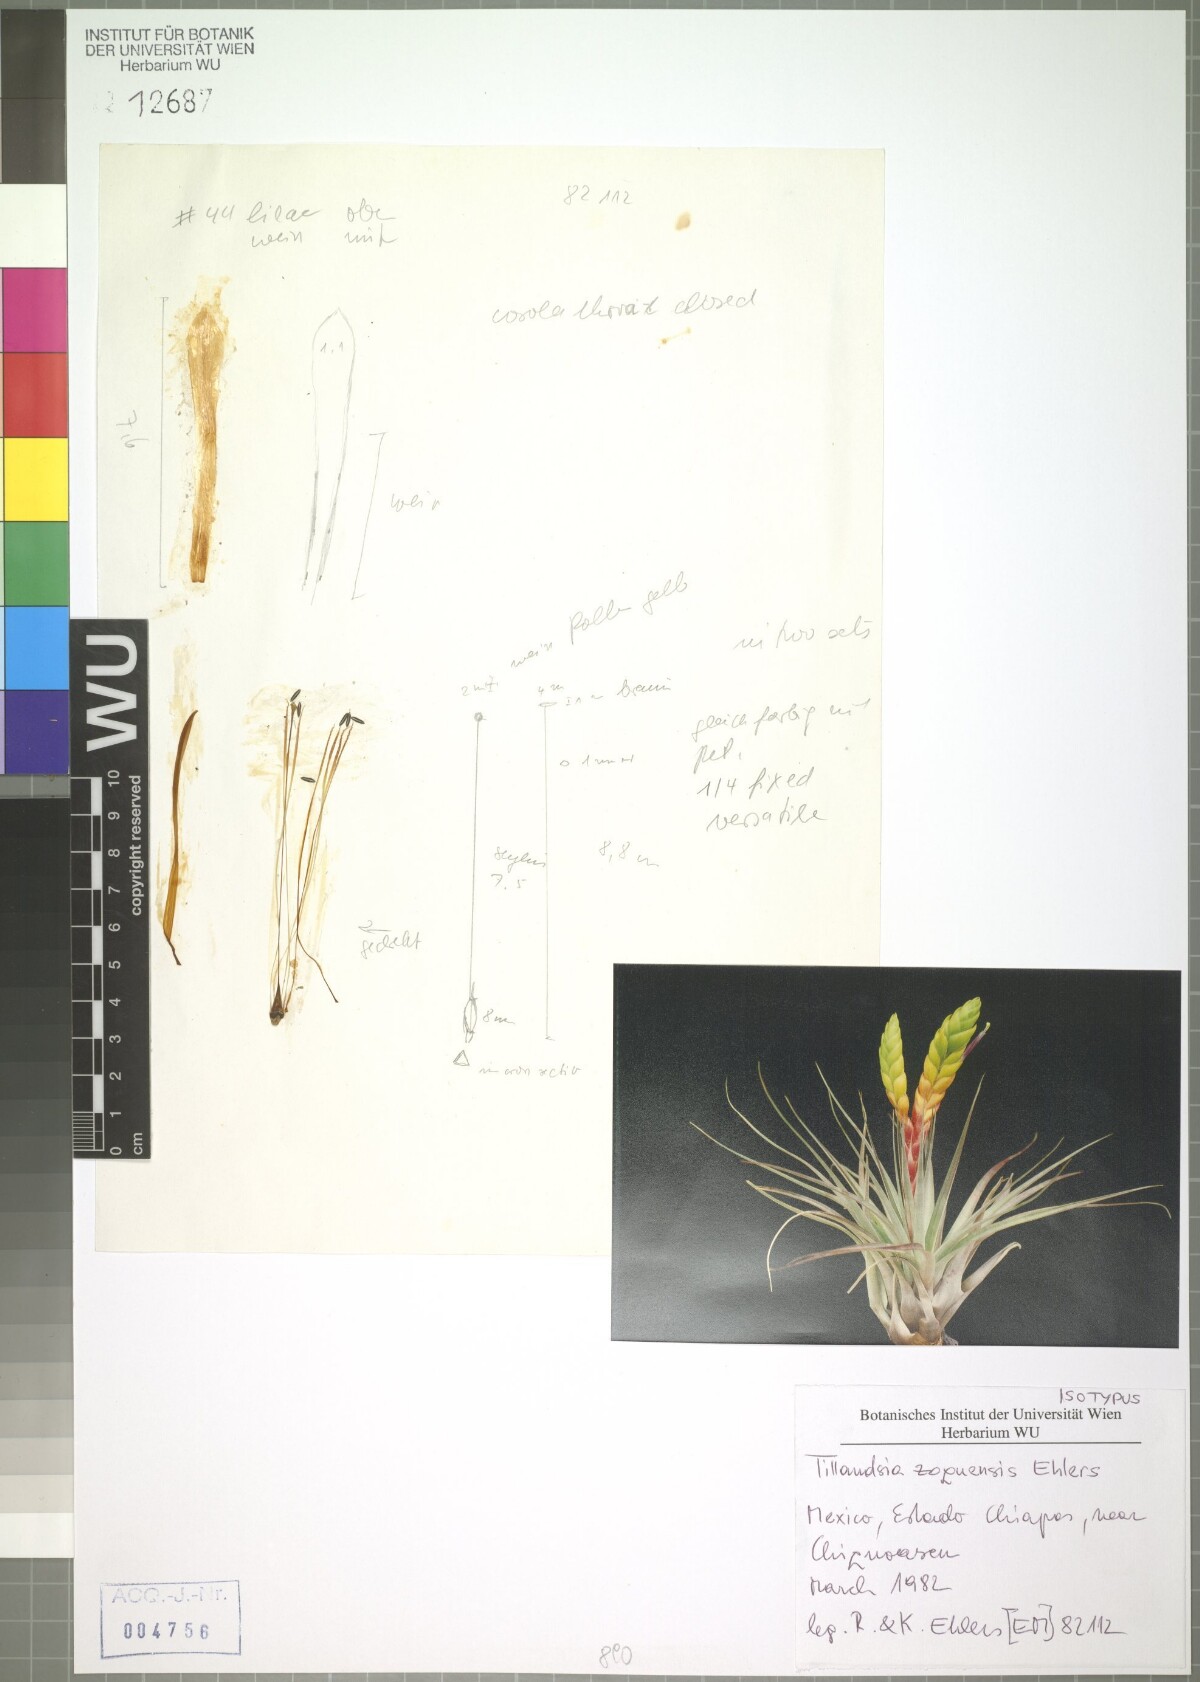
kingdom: Plantae
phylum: Tracheophyta
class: Liliopsida
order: Poales
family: Bromeliaceae
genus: Tillandsia
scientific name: Tillandsia zoquensis
